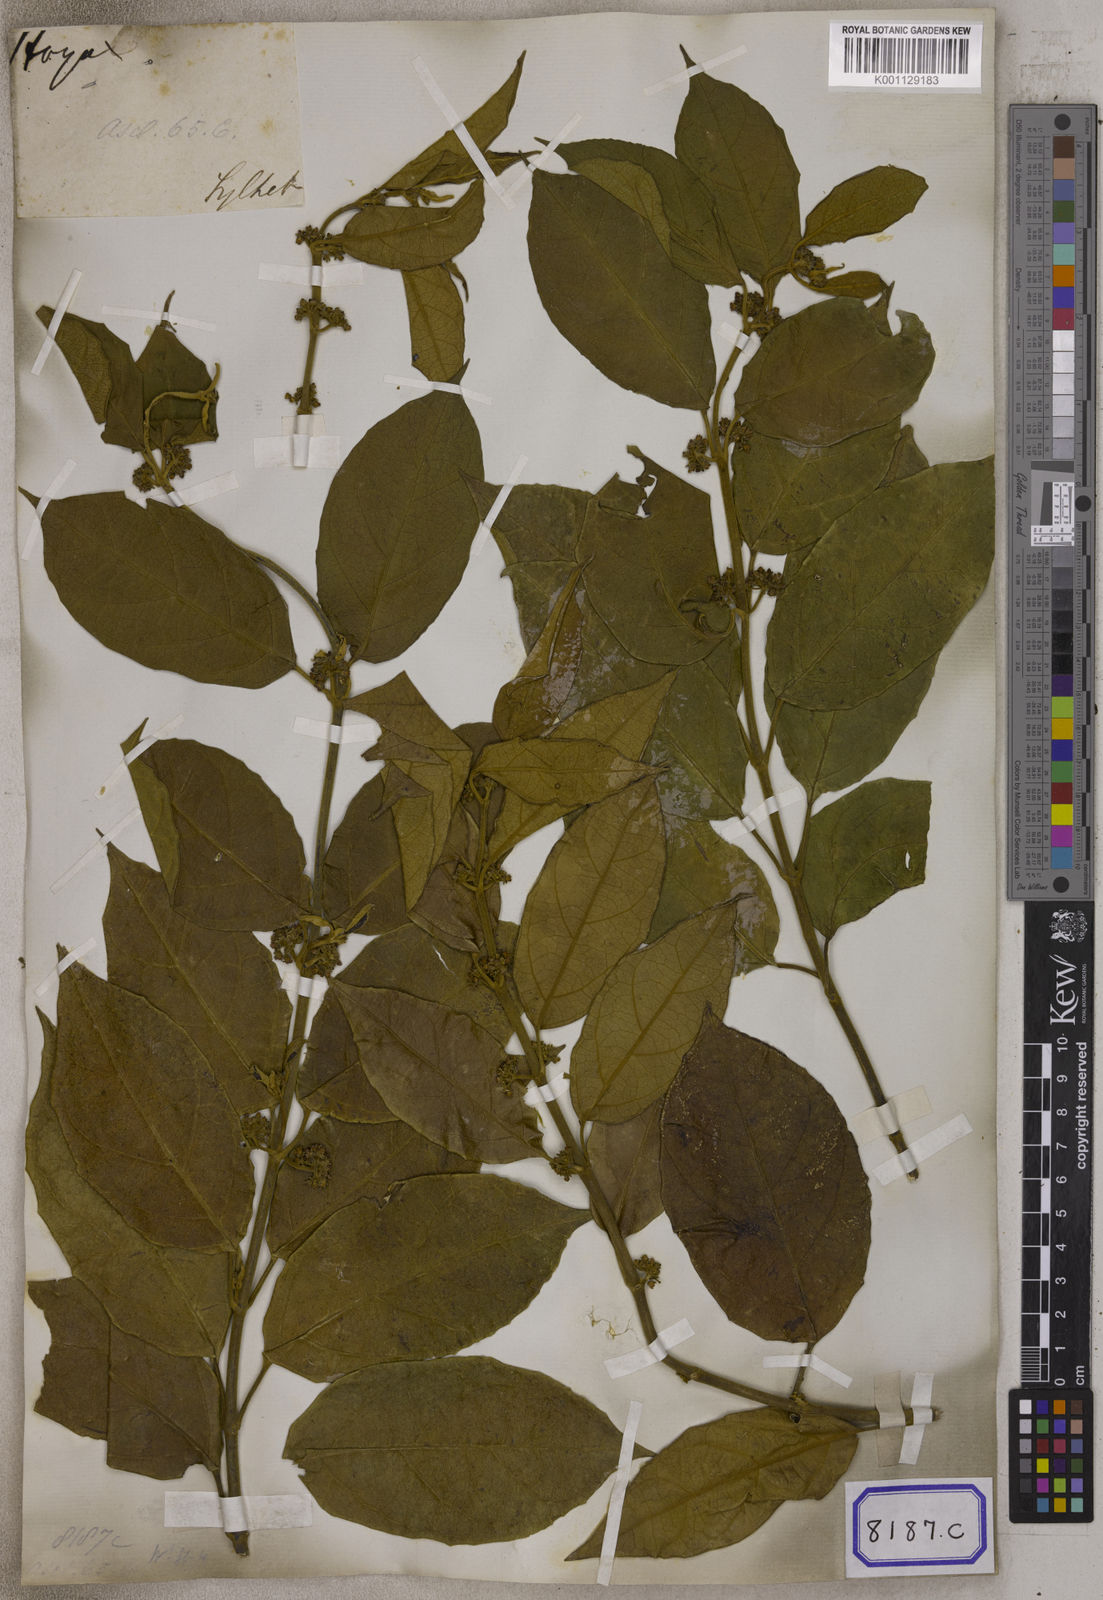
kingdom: Plantae
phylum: Tracheophyta
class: Magnoliopsida
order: Gentianales
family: Apocynaceae
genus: Gymnema
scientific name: Gymnema acuminatum
